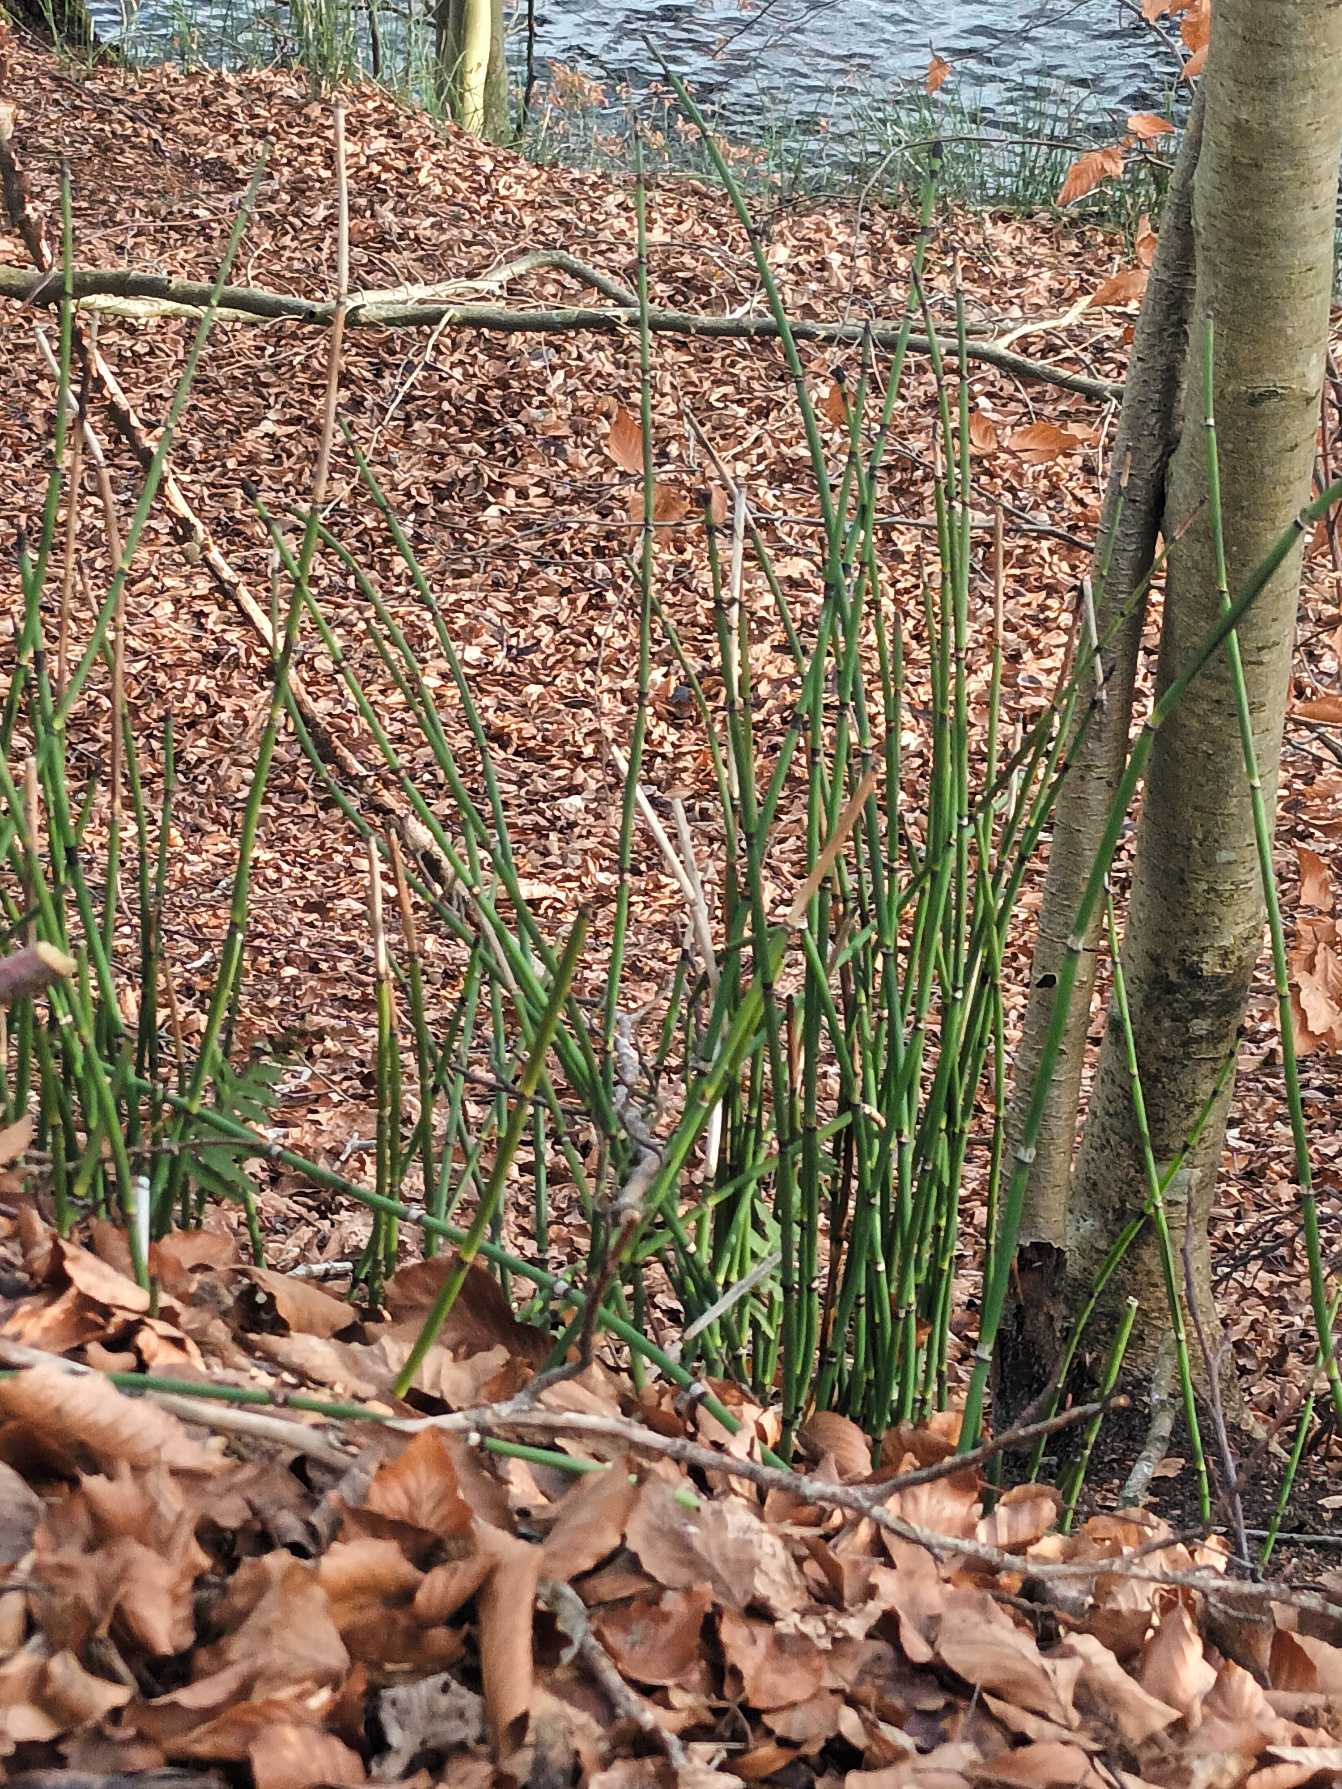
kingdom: Plantae
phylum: Tracheophyta
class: Polypodiopsida
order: Equisetales
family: Equisetaceae
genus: Equisetum
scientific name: Equisetum hyemale
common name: Skavgræs
